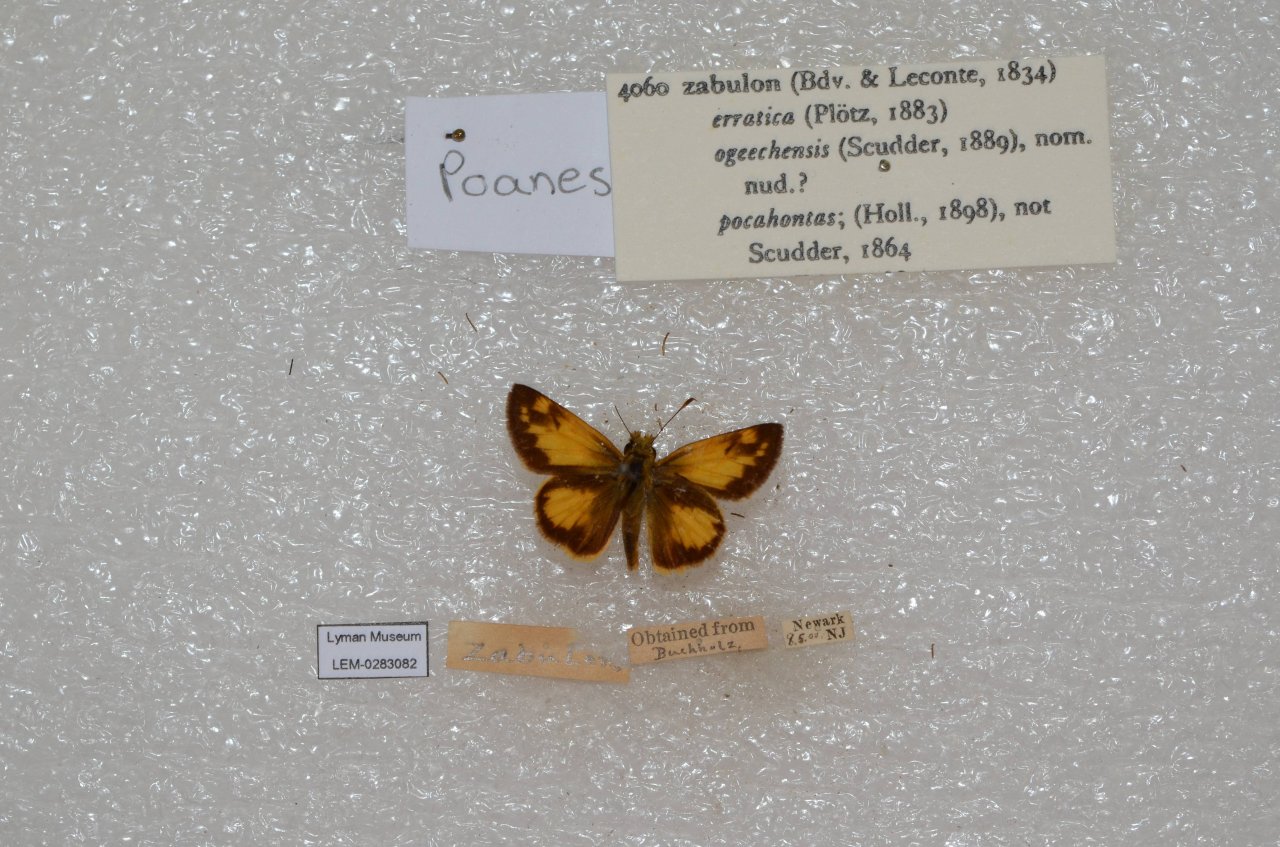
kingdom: Animalia
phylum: Arthropoda
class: Insecta
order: Lepidoptera
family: Hesperiidae
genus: Lon
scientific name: Lon zabulon
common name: Zabulon Skipper
